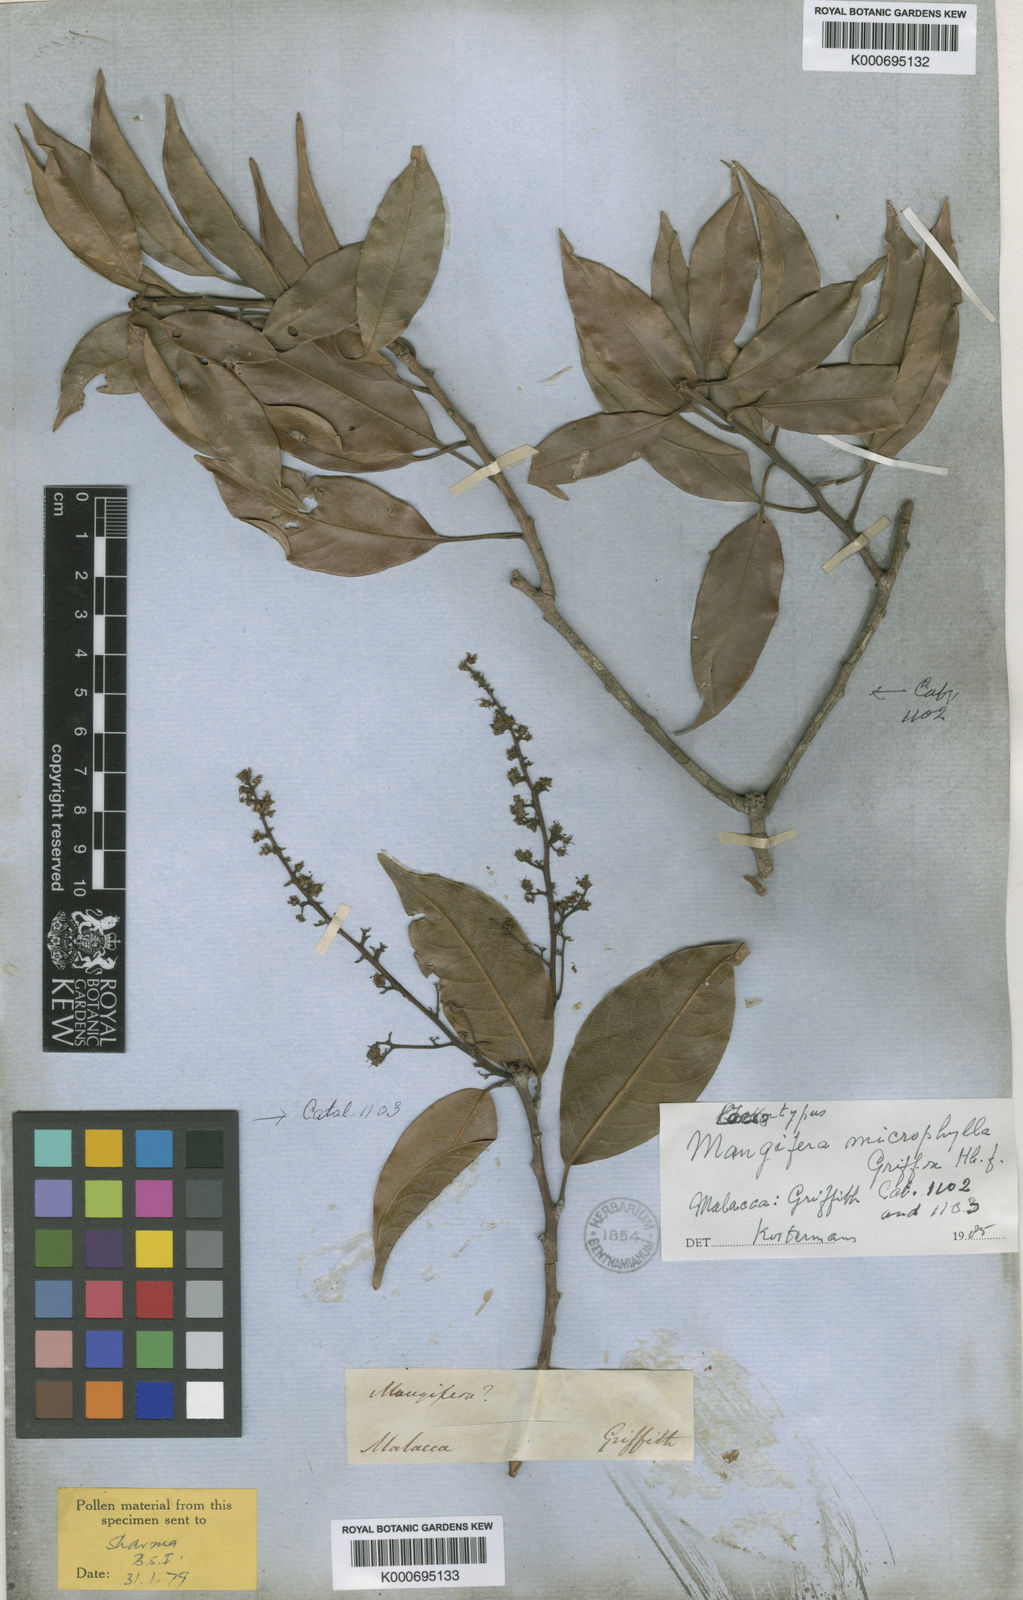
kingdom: Plantae
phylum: Tracheophyta
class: Magnoliopsida
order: Sapindales
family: Anacardiaceae
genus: Mangifera
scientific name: Mangifera griffithii
